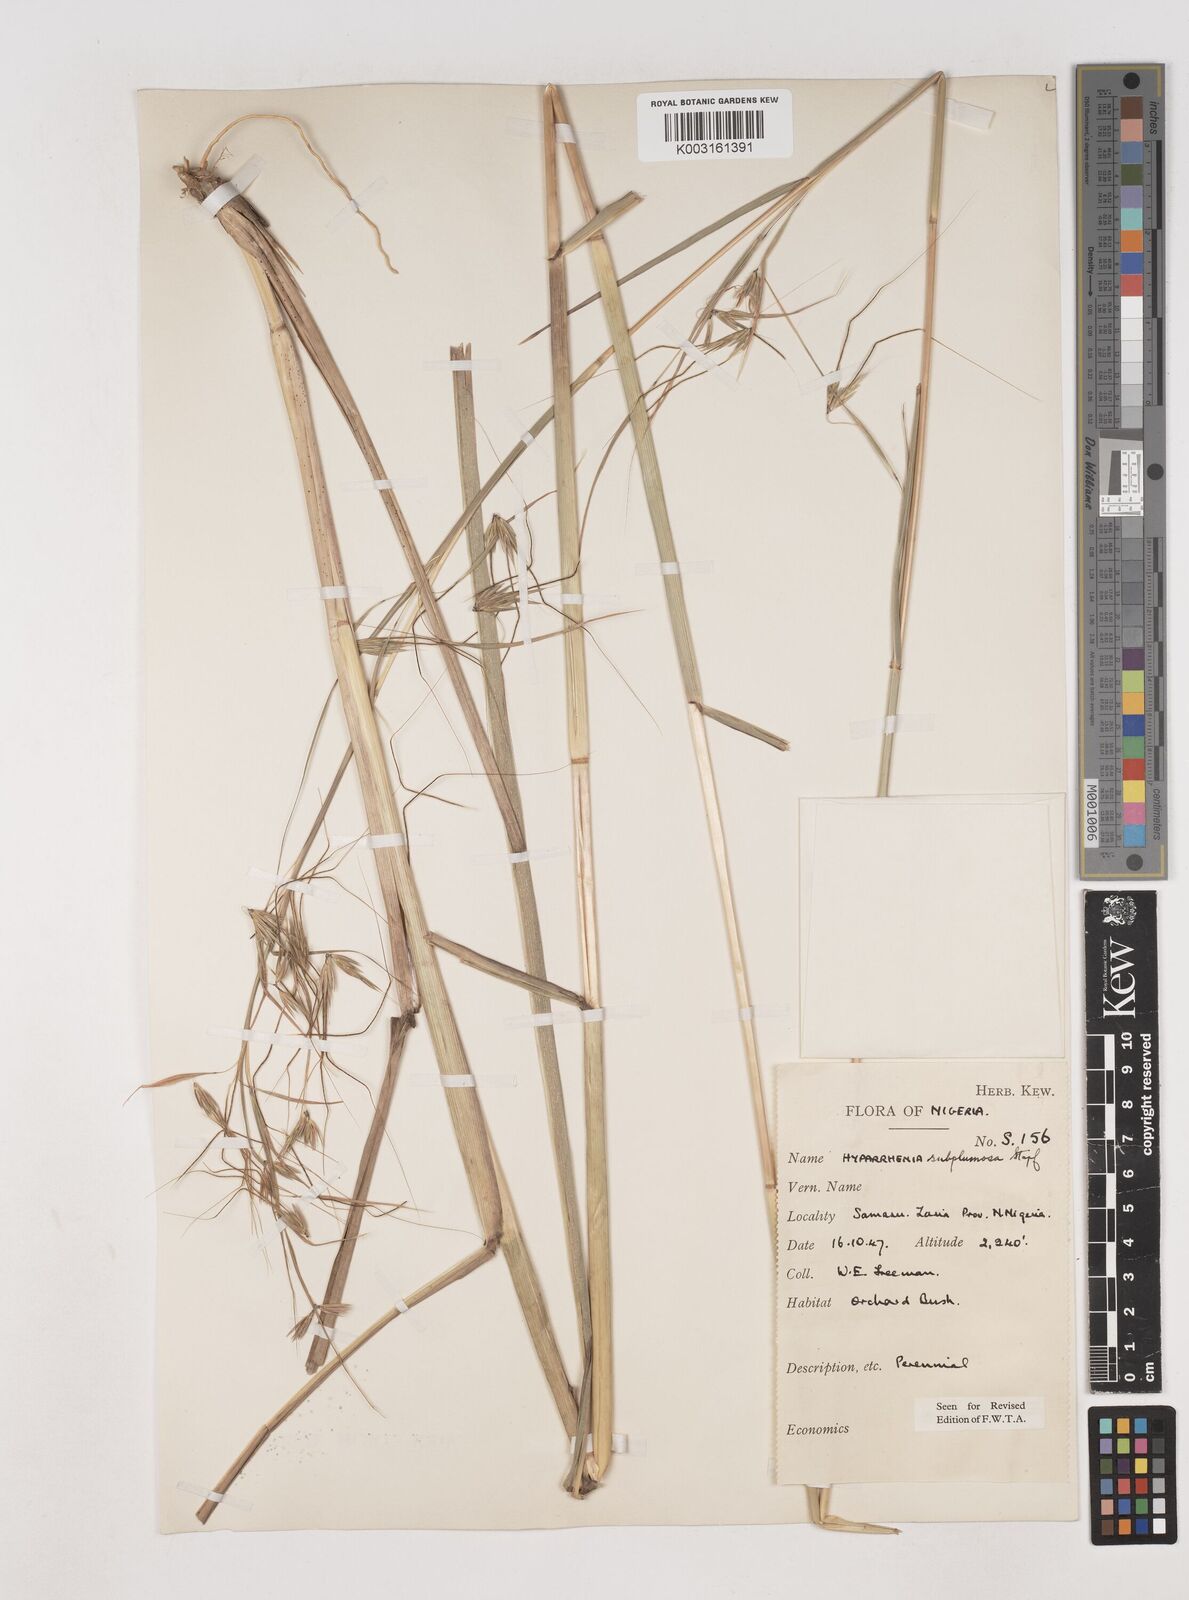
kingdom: Plantae
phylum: Tracheophyta
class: Liliopsida
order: Poales
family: Poaceae
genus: Hyparrhenia
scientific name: Hyparrhenia subplumosa
